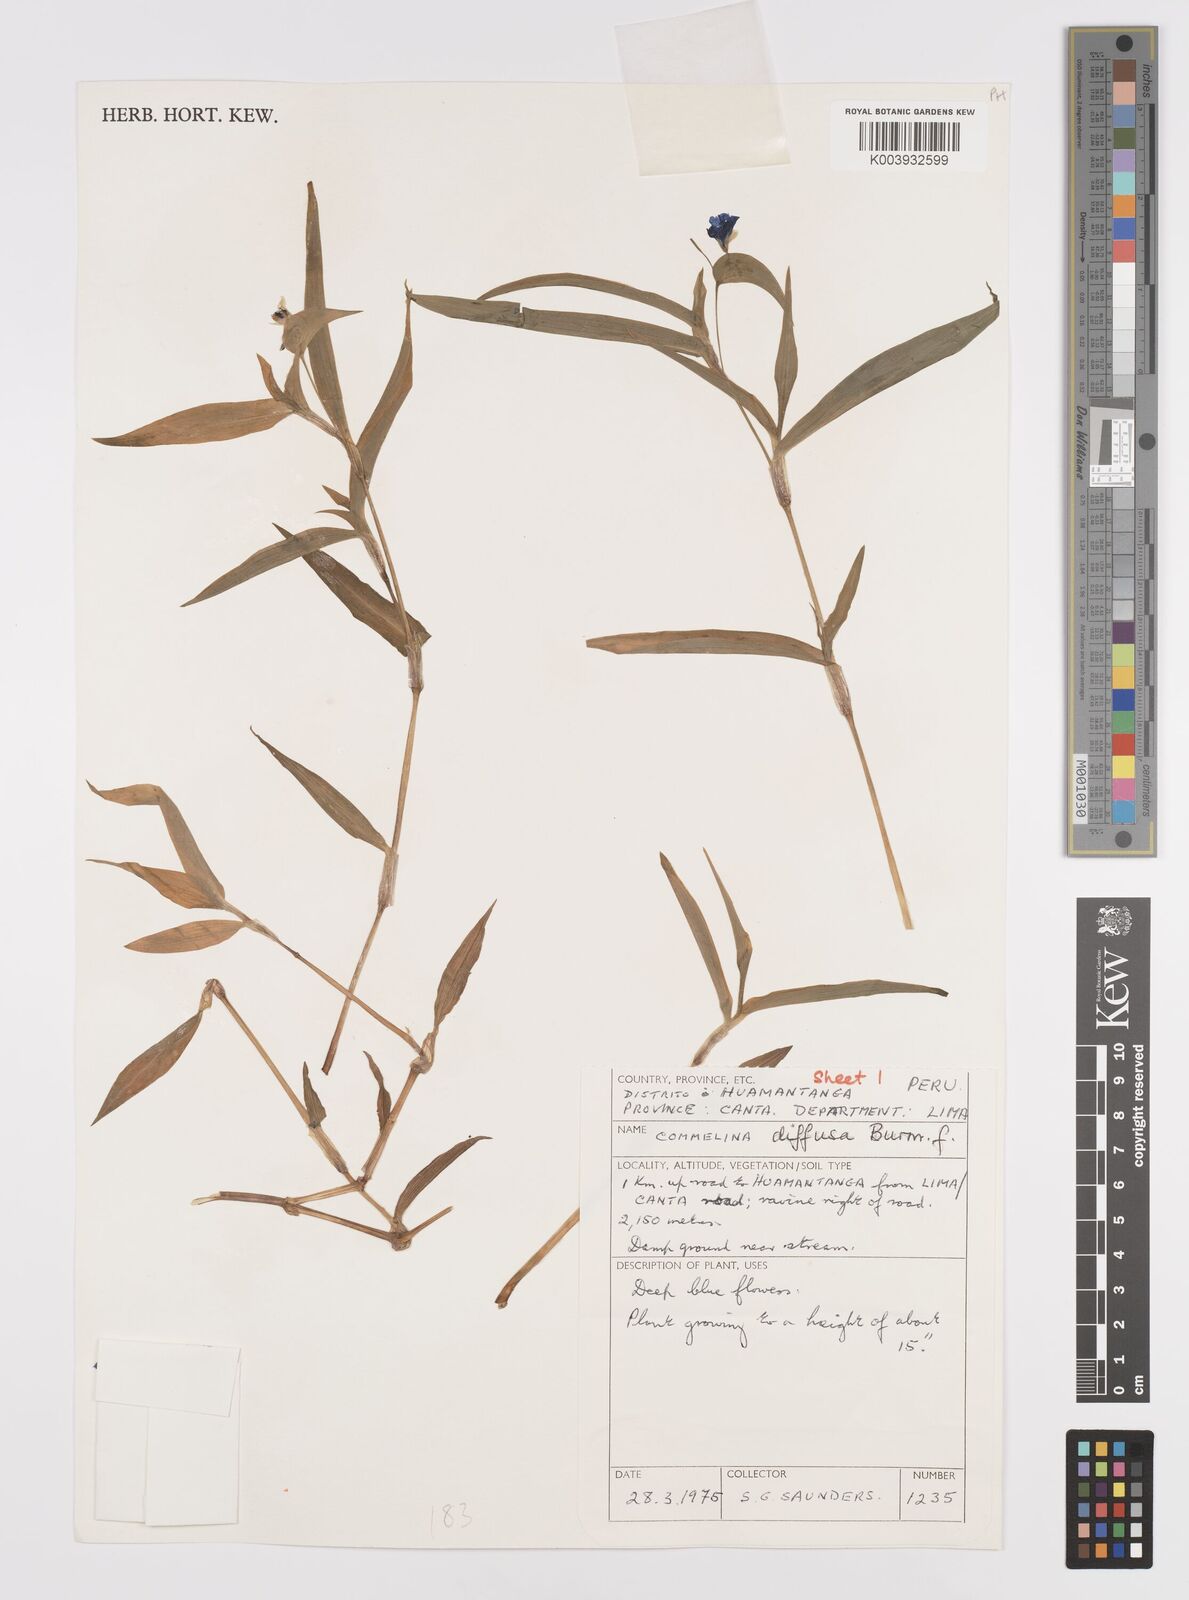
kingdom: Plantae
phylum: Tracheophyta
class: Liliopsida
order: Commelinales
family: Commelinaceae
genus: Commelina
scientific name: Commelina diffusa
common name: Climbing dayflower
